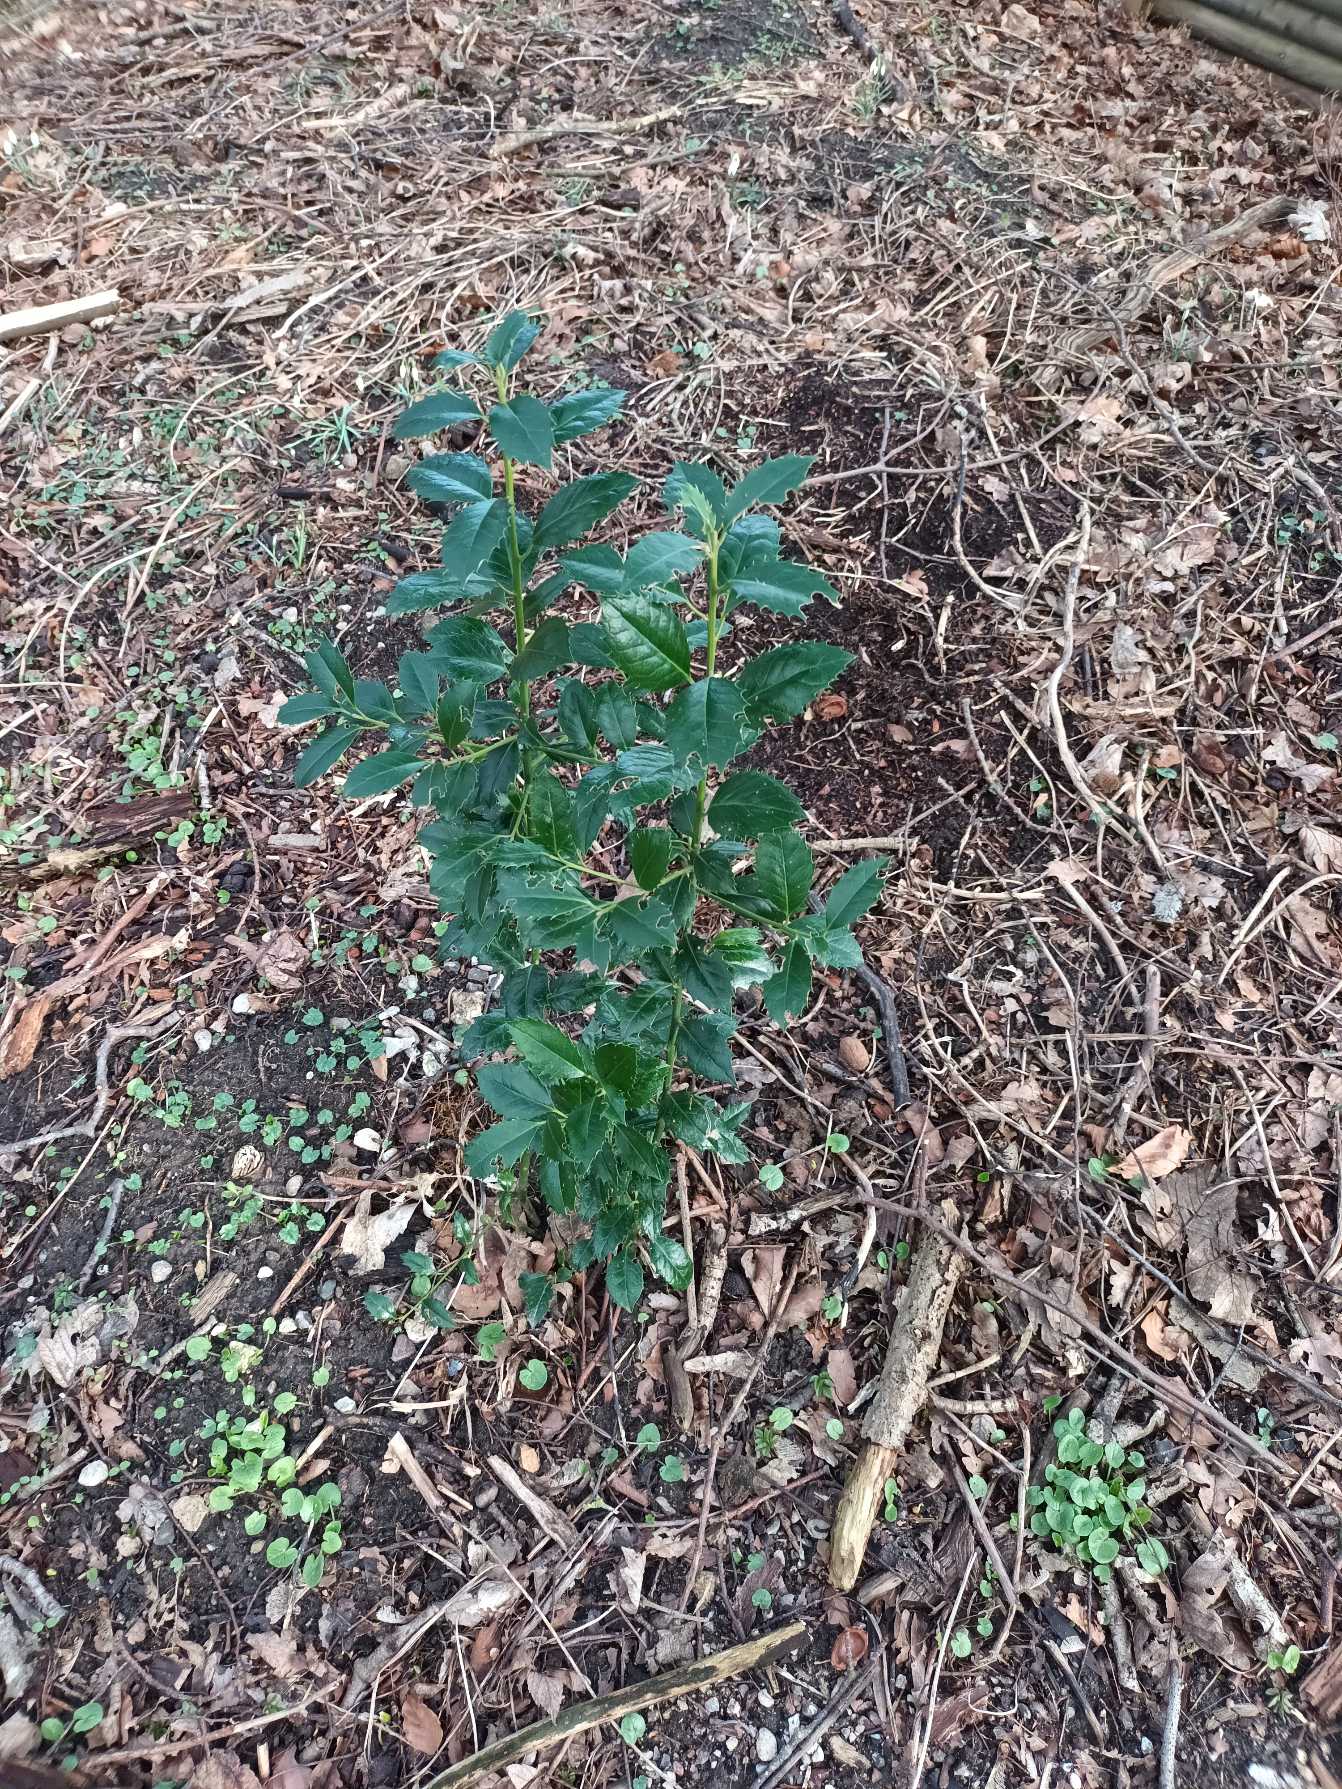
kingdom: Plantae
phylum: Tracheophyta
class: Magnoliopsida
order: Aquifoliales
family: Aquifoliaceae
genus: Ilex
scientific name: Ilex meserveae
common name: Blågrøn kristtorn
